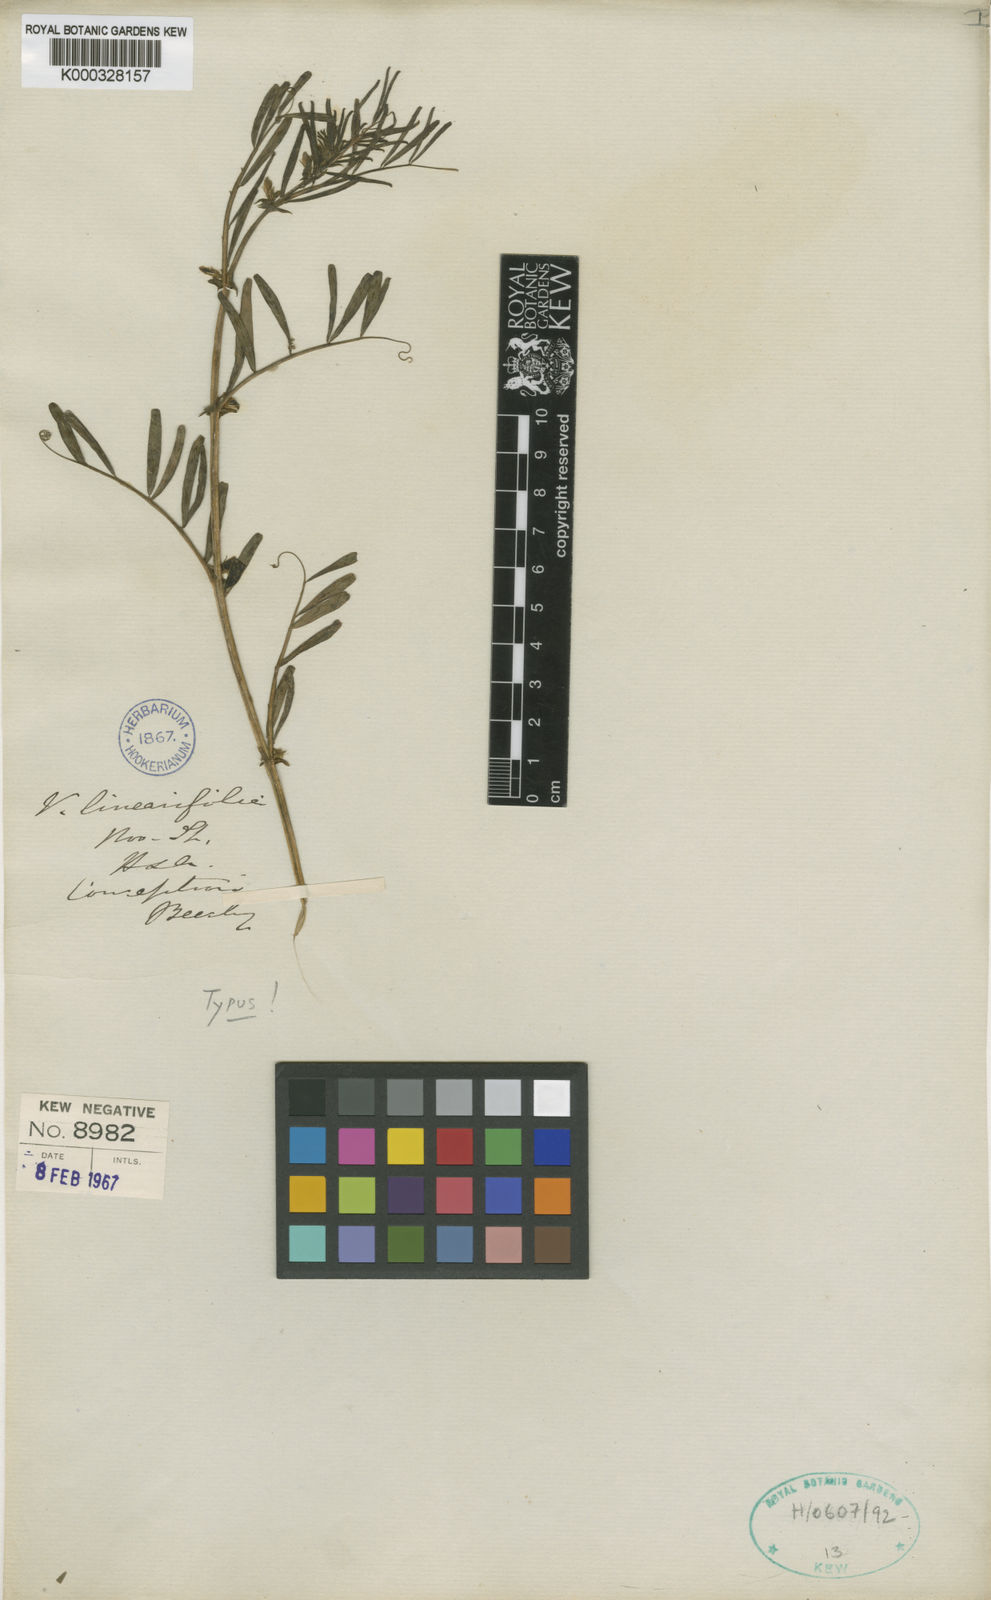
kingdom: Plantae
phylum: Tracheophyta
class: Magnoliopsida
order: Fabales
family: Fabaceae
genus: Vicia
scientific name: Vicia linearifolia
